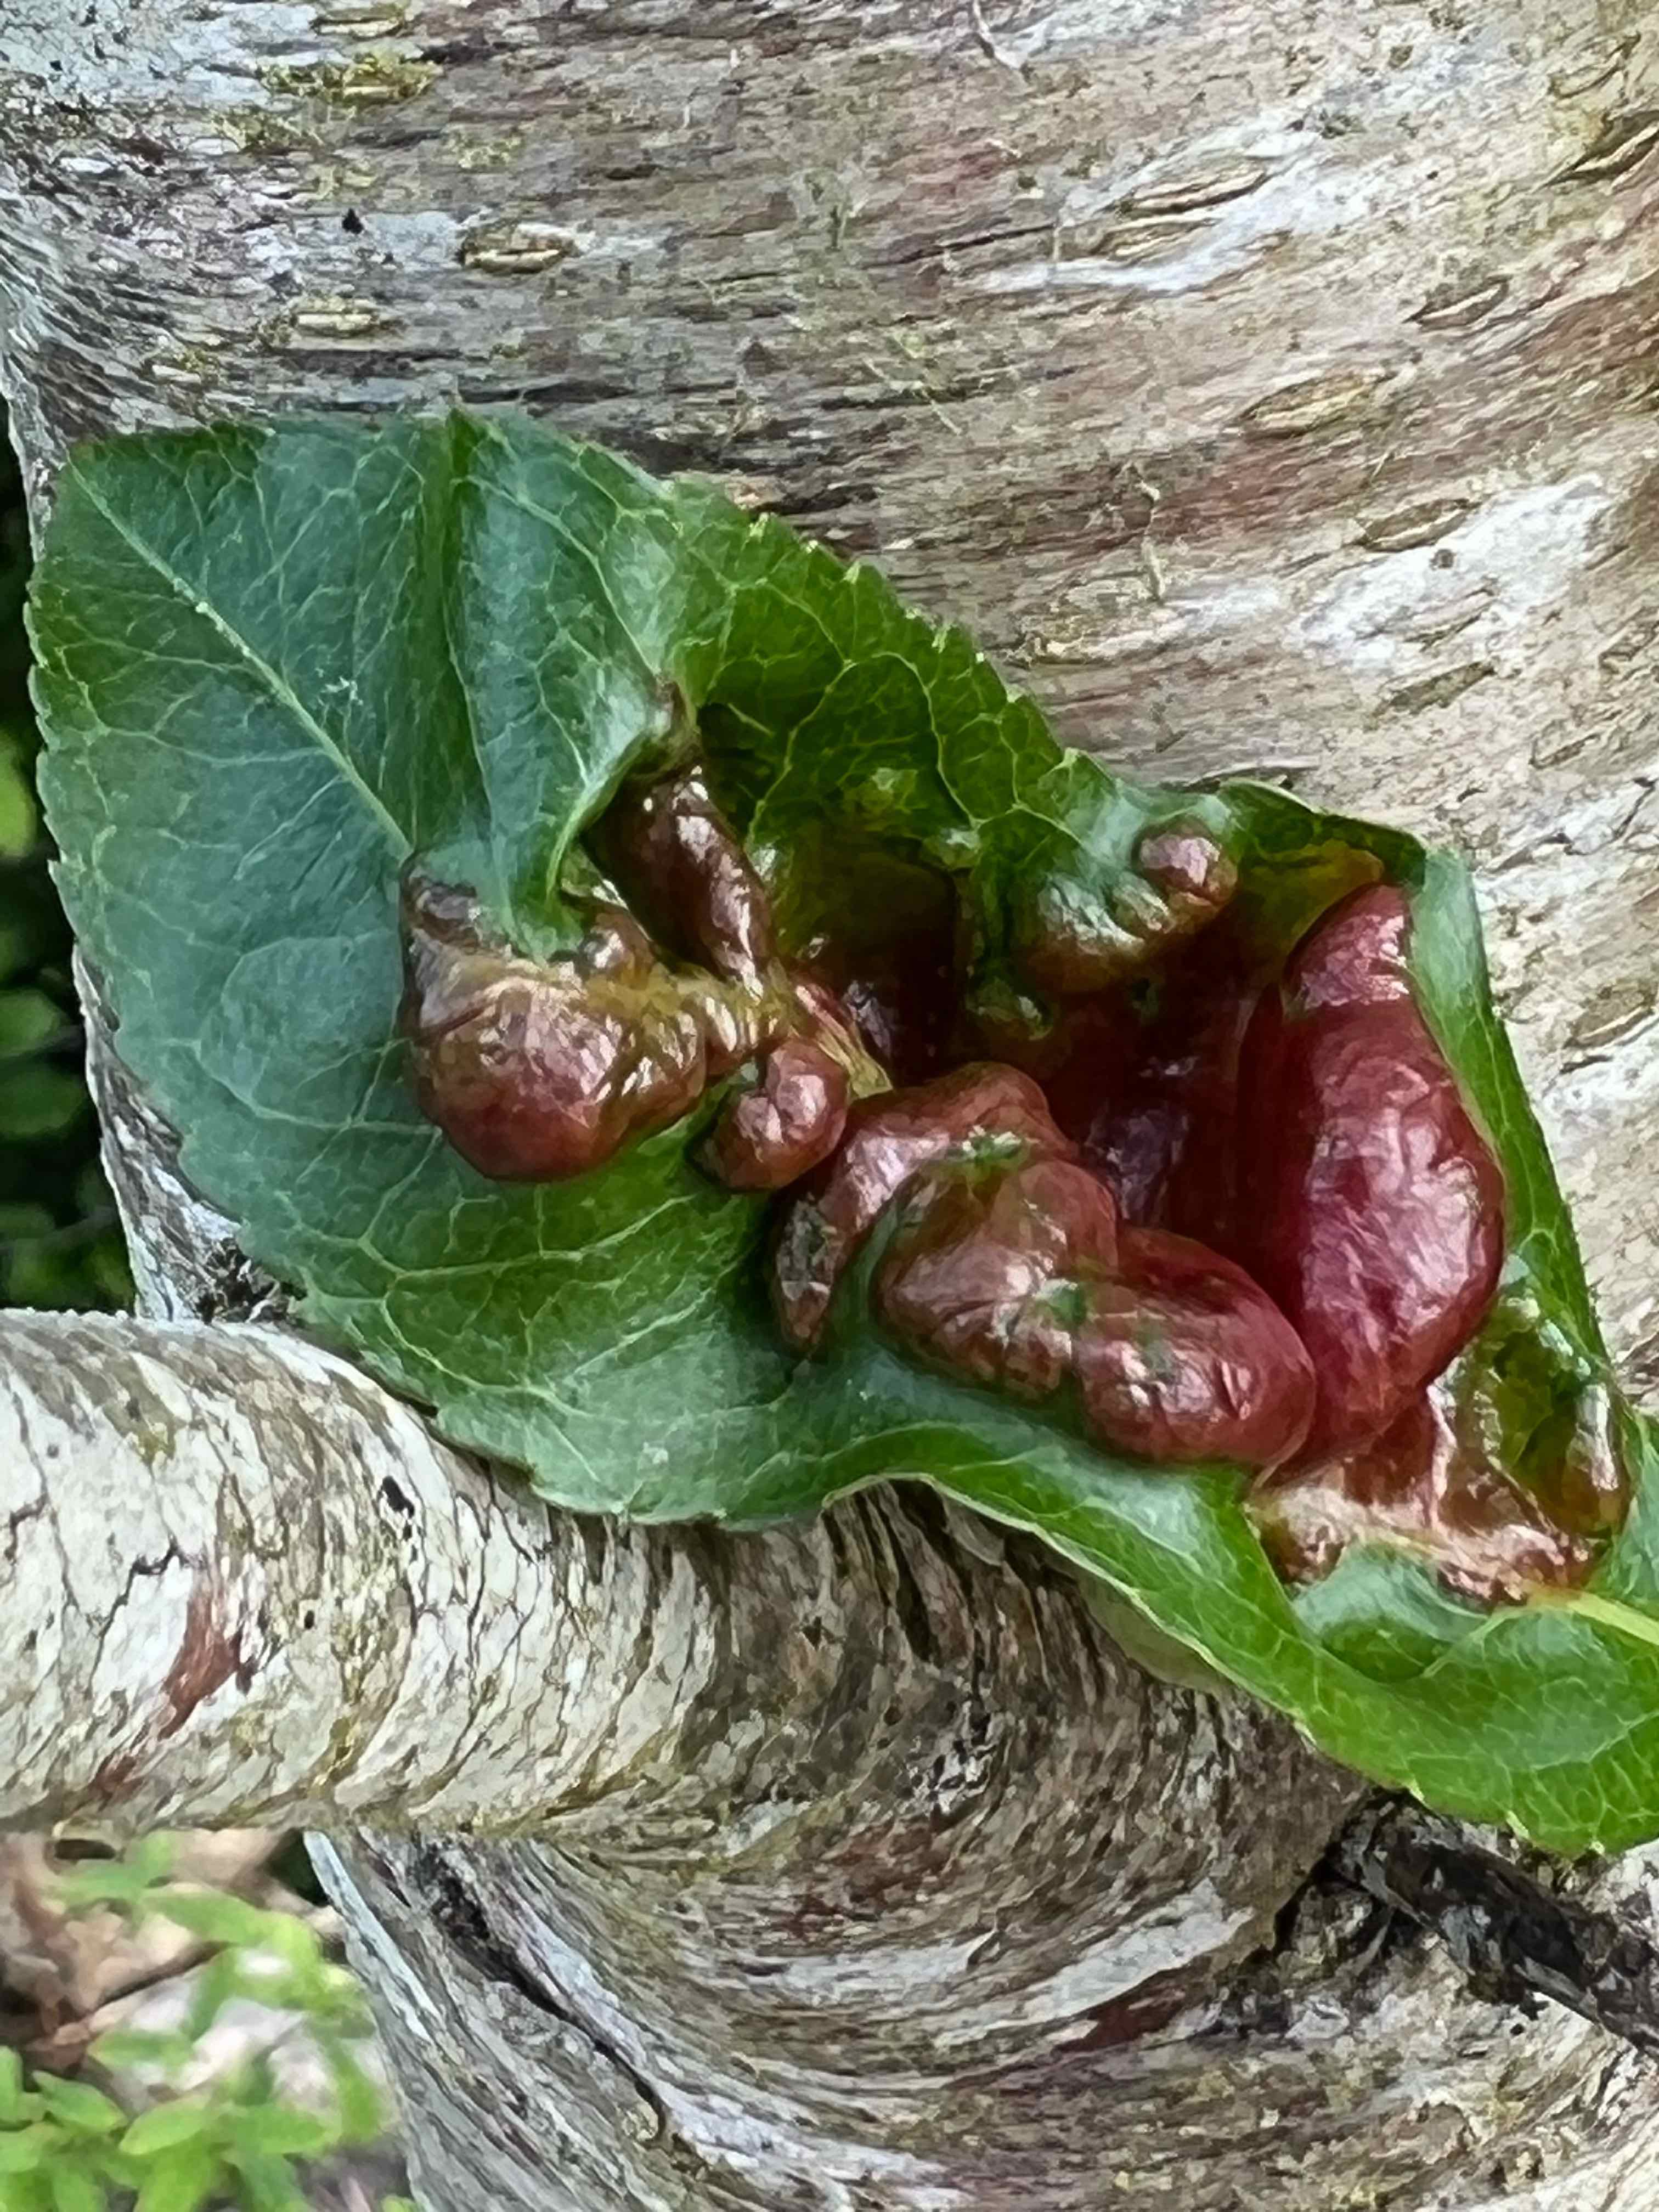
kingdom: Fungi
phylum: Ascomycota
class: Taphrinomycetes
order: Taphrinales
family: Taphrinaceae
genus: Taphrina
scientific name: Taphrina deformans
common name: Peach leaf curl
